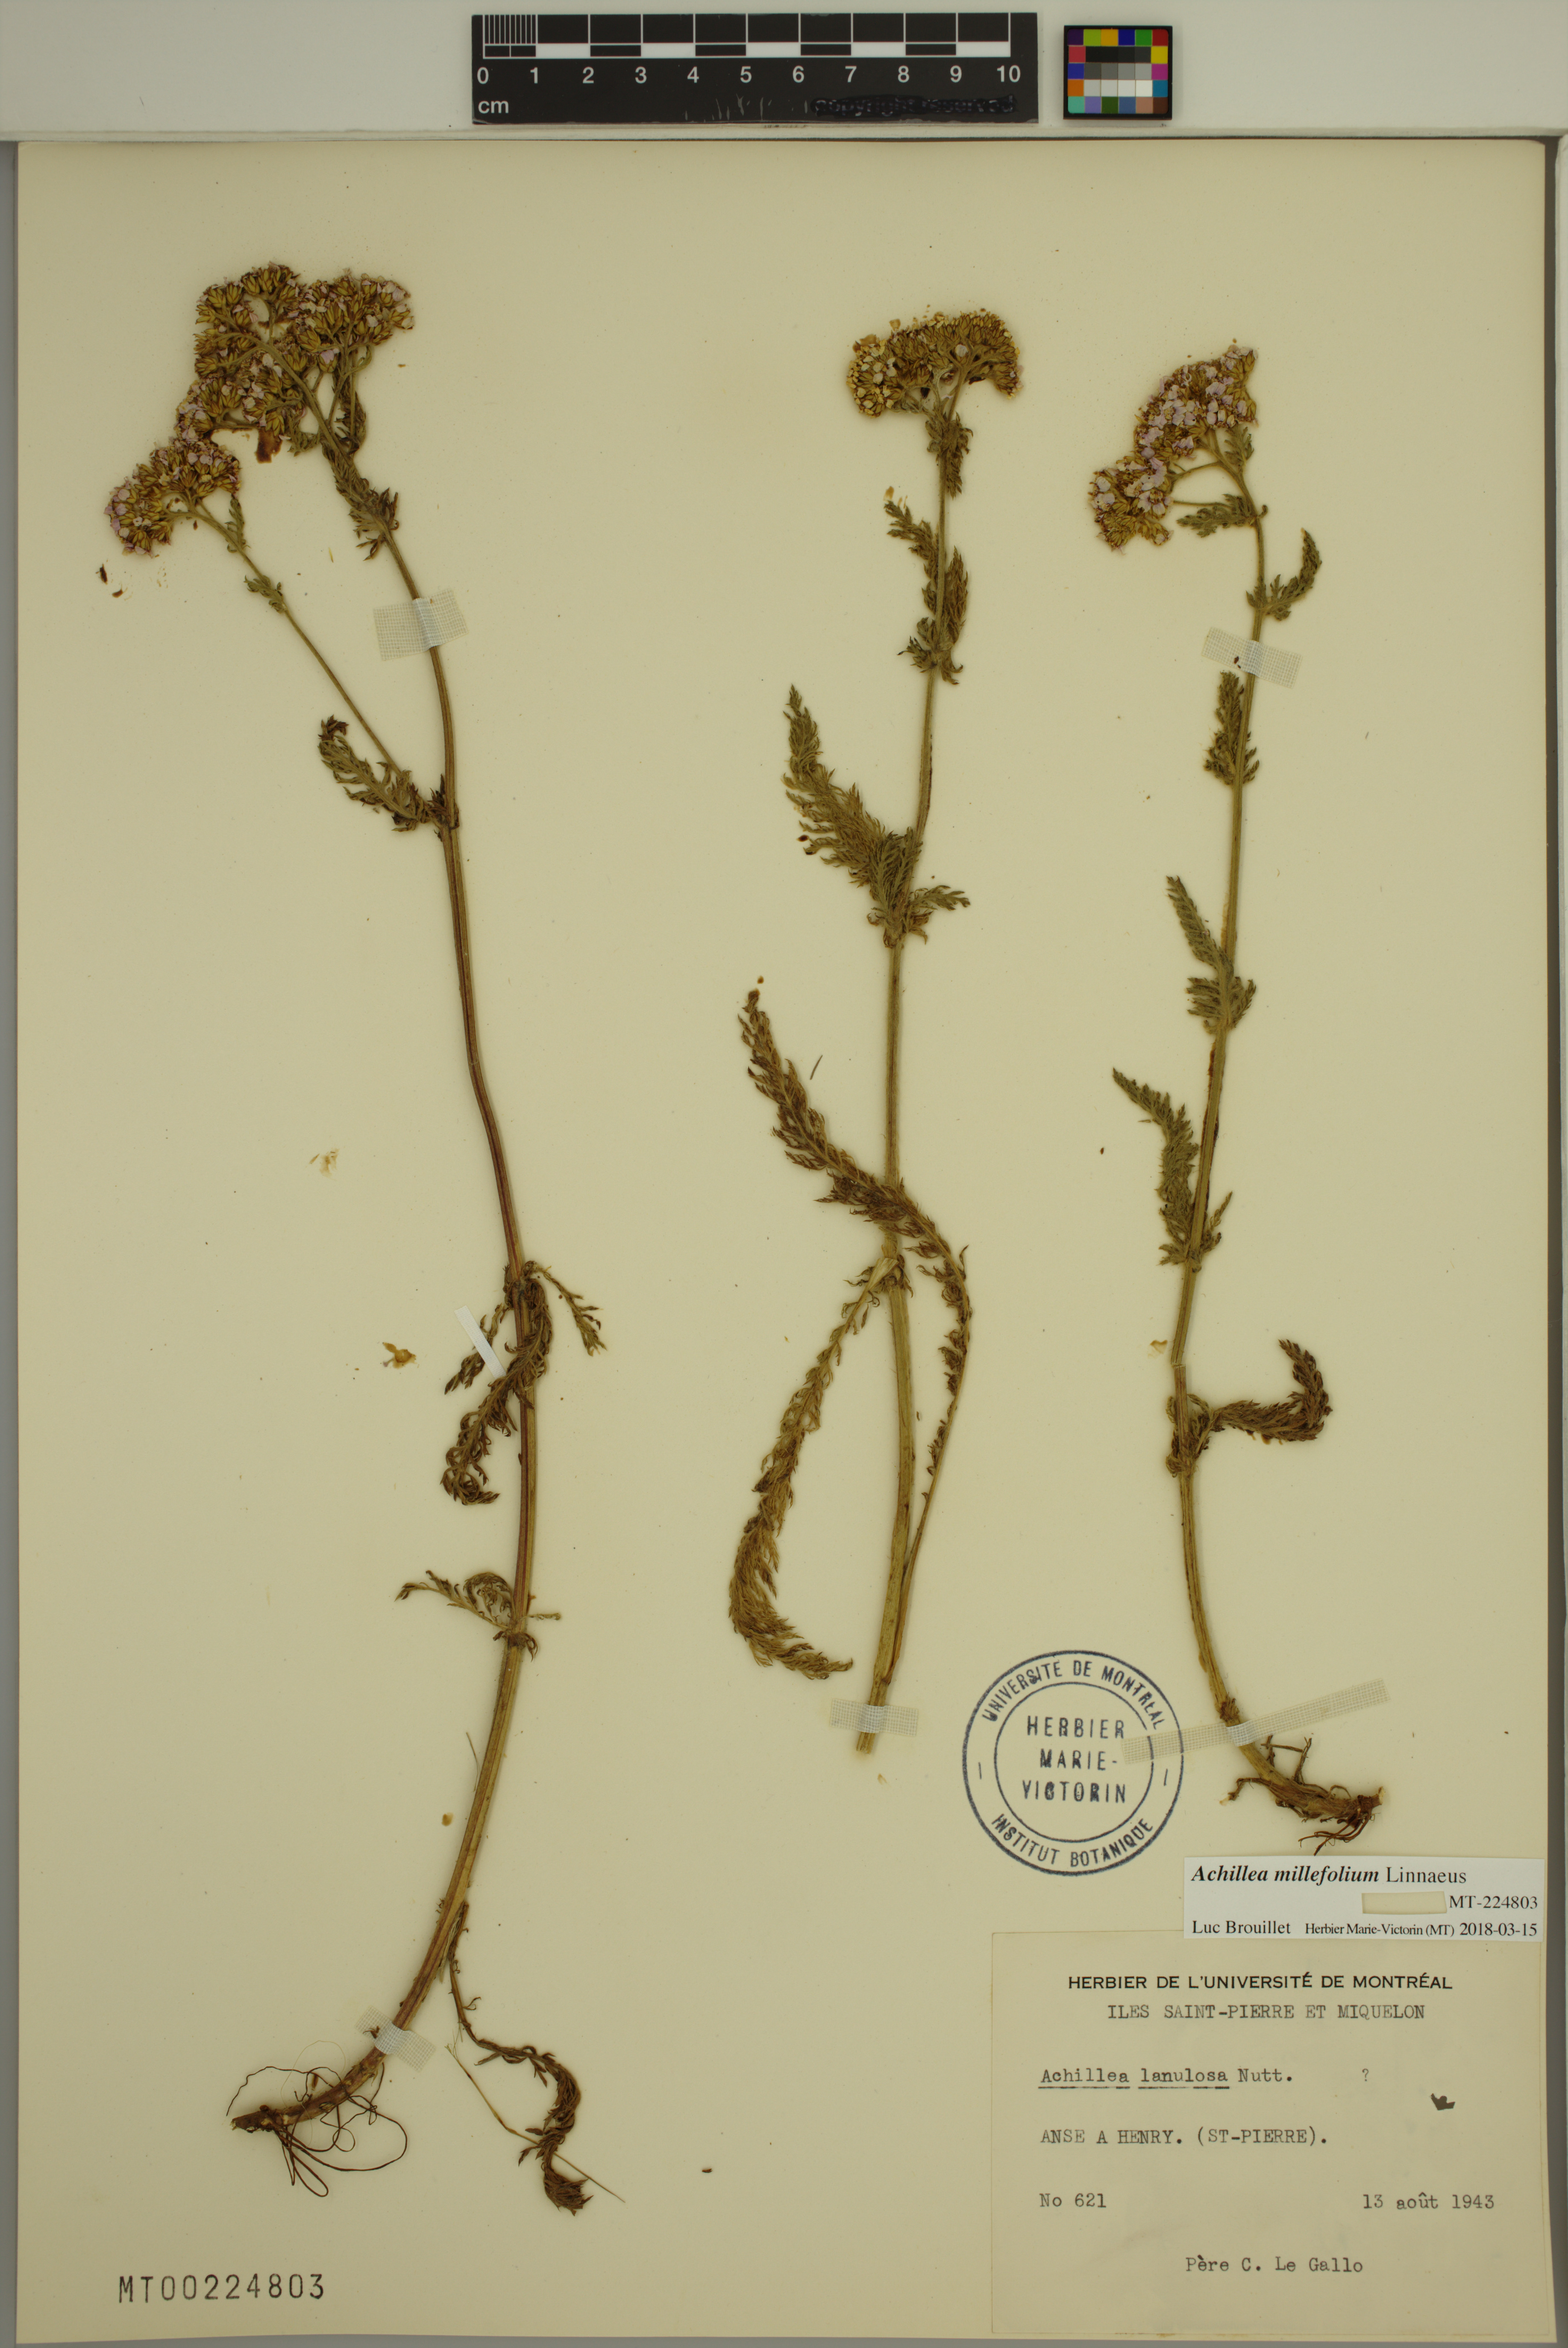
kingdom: Plantae
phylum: Tracheophyta
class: Magnoliopsida
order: Asterales
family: Asteraceae
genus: Achillea
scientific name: Achillea millefolium
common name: Yarrow
